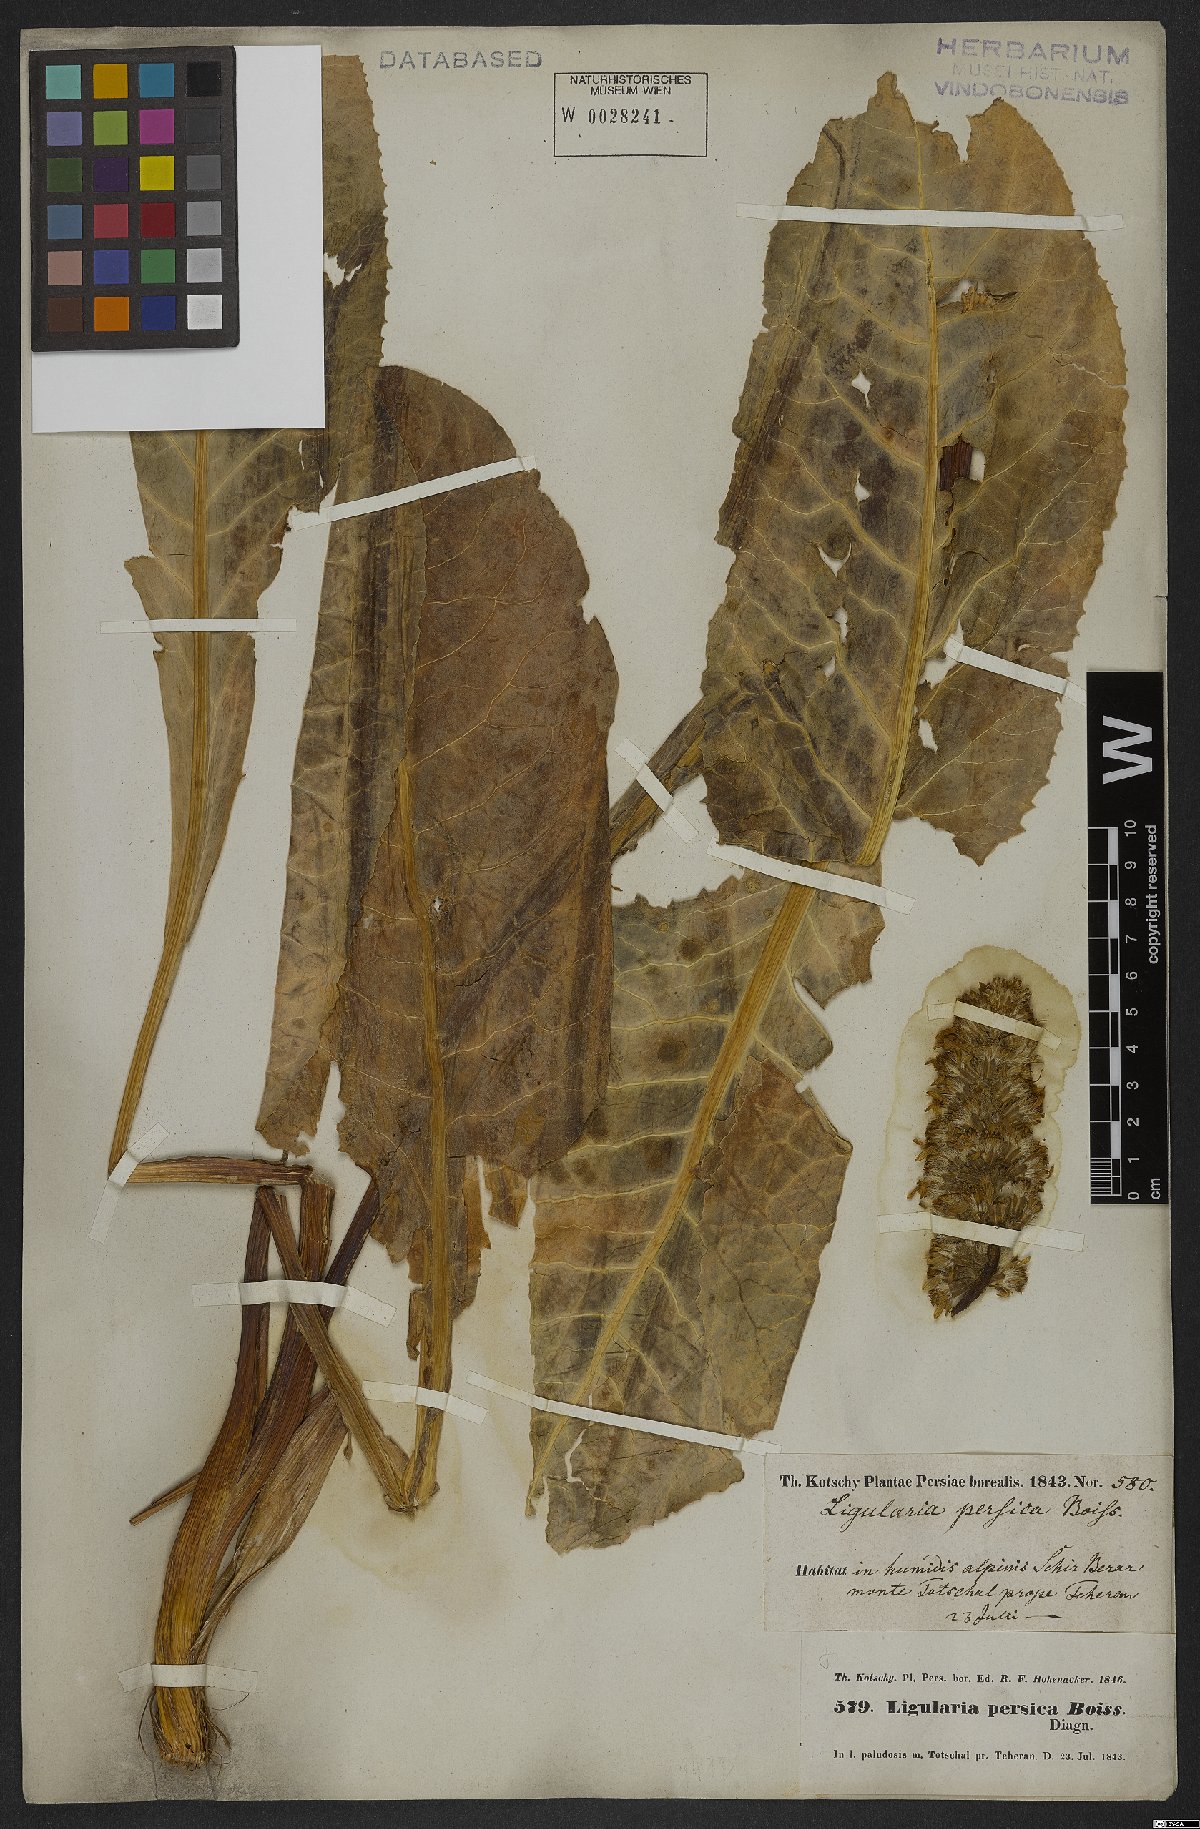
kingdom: Plantae
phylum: Tracheophyta
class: Magnoliopsida
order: Asterales
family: Asteraceae
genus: Dolichorrhiza
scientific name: Dolichorrhiza persica
